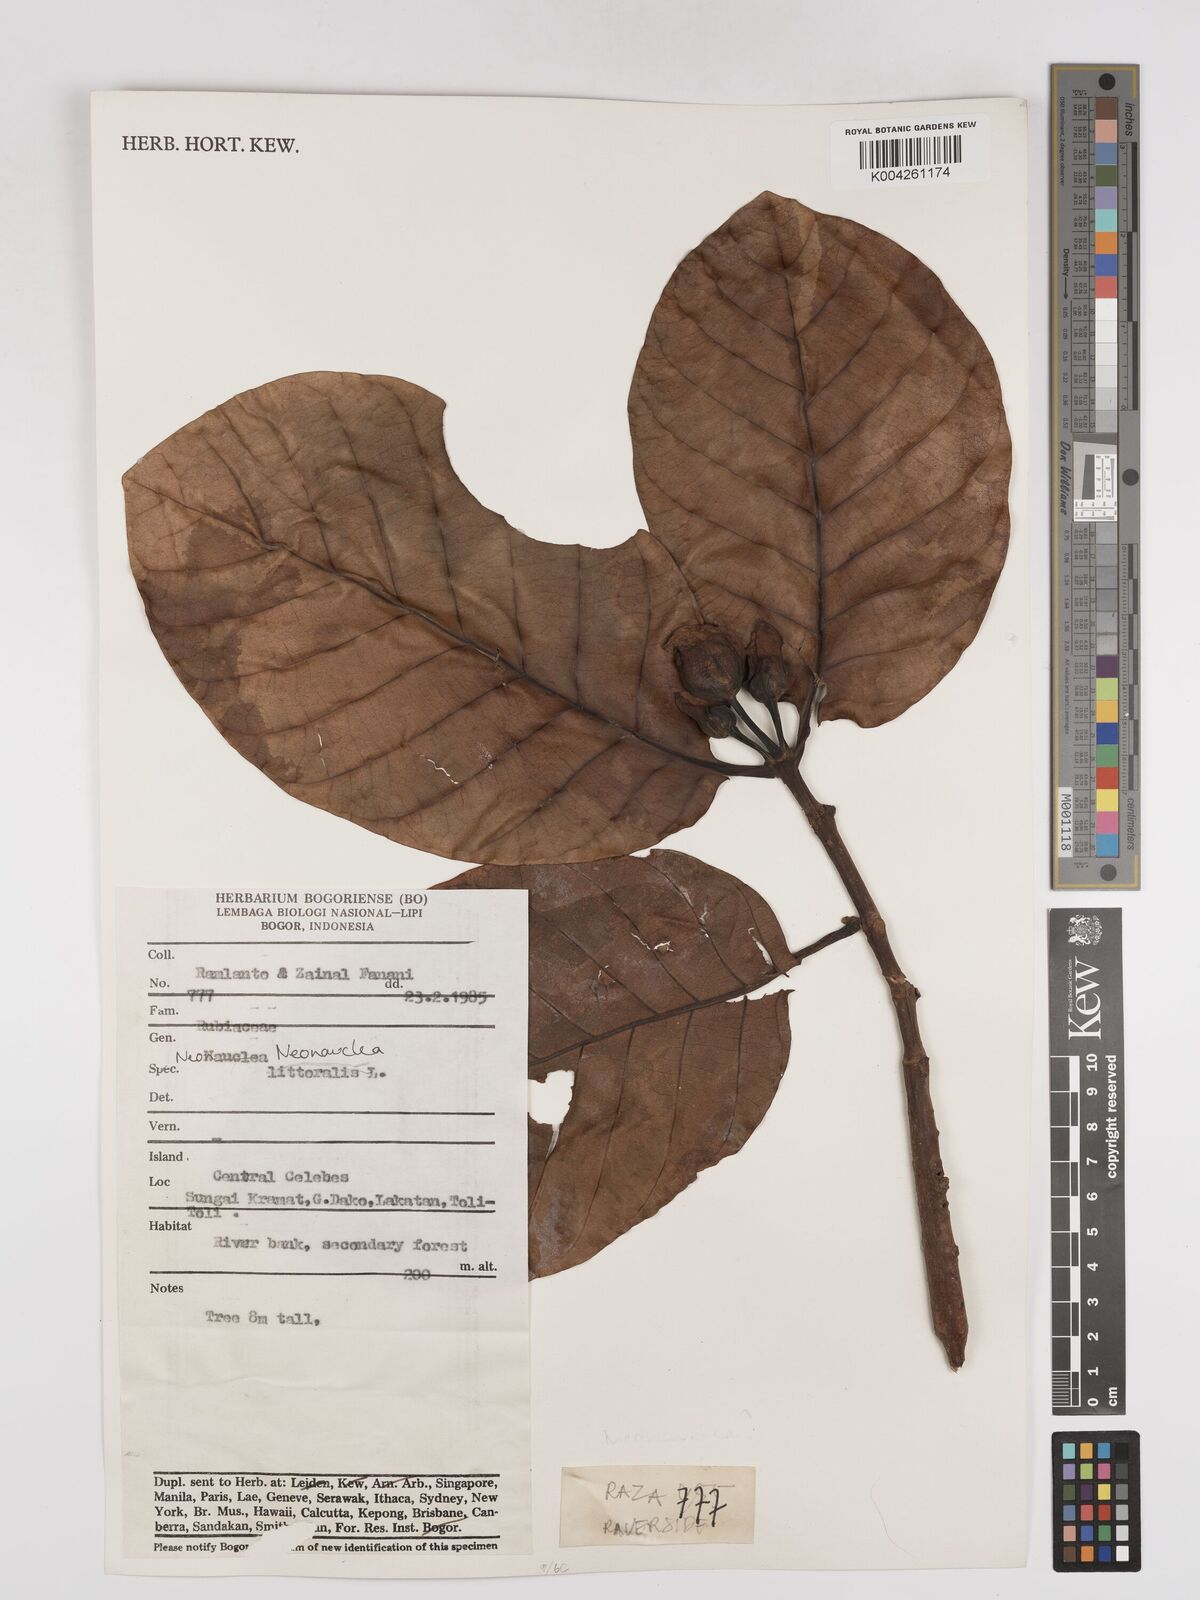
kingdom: Plantae
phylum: Tracheophyta
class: Magnoliopsida
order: Gentianales
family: Rubiaceae
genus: Neonauclea
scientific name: Neonauclea
